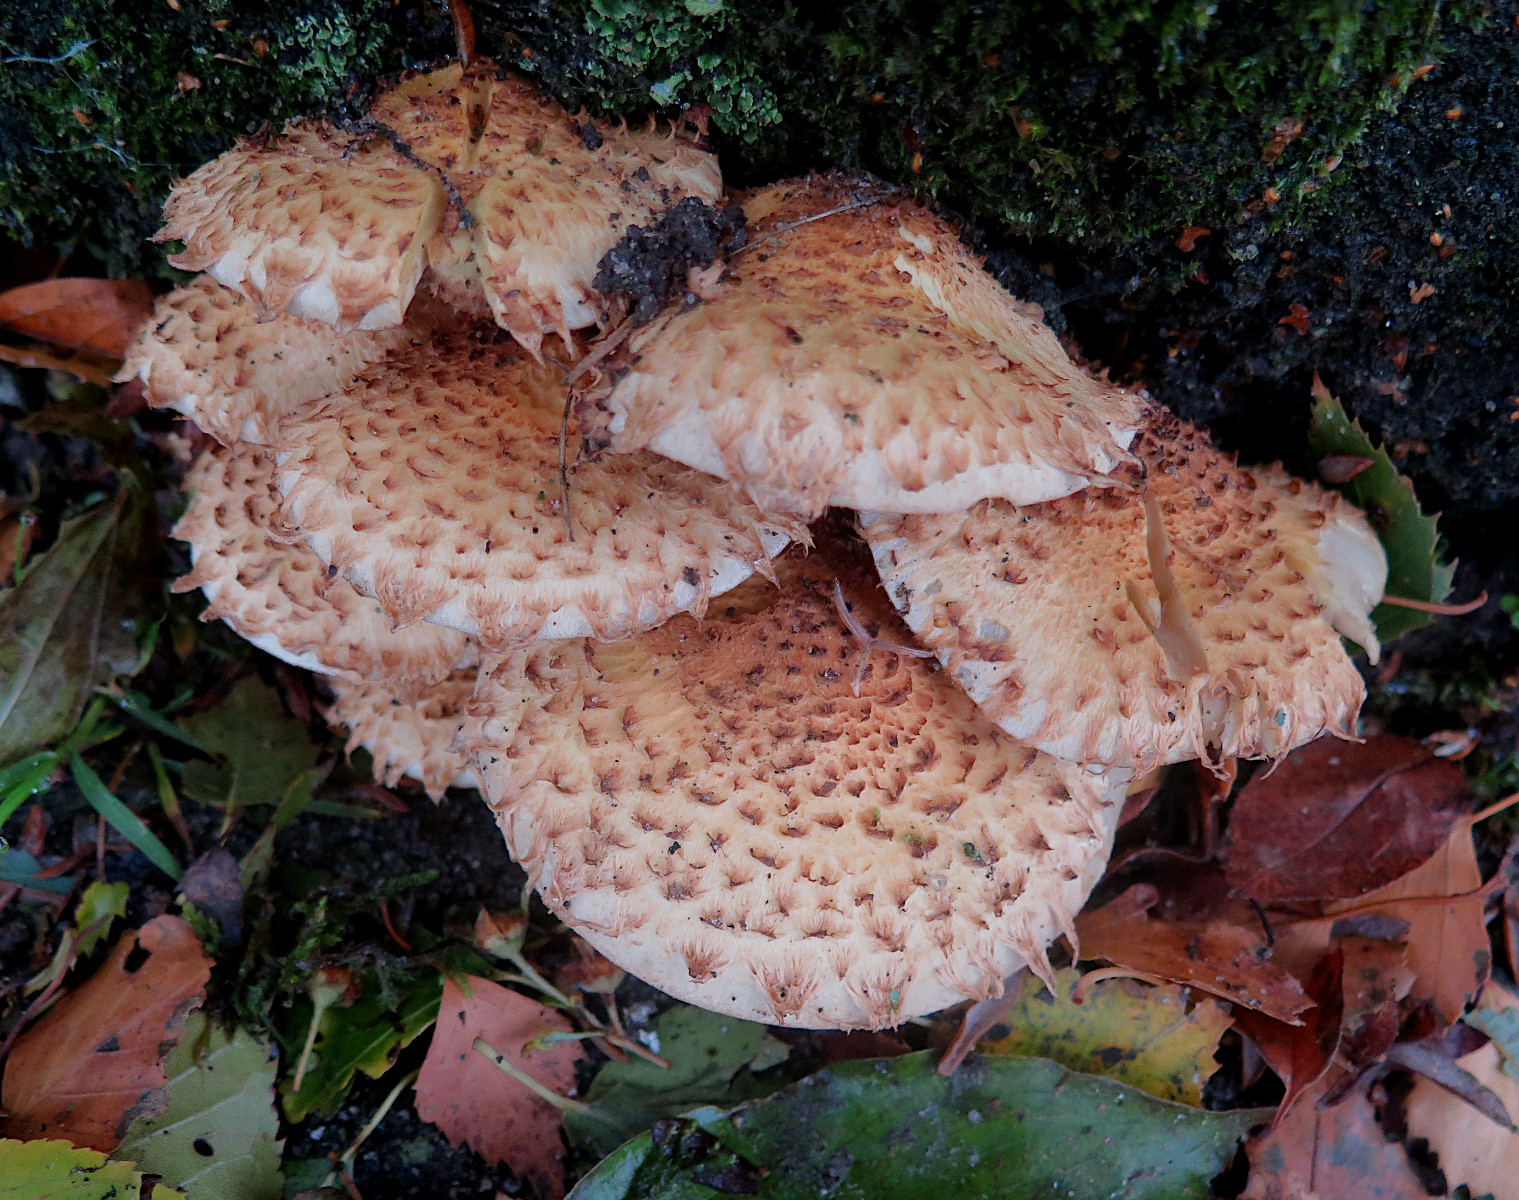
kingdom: Fungi
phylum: Basidiomycota
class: Agaricomycetes
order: Agaricales
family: Strophariaceae
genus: Pholiota
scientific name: Pholiota squarrosa
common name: krumskællet skælhat
